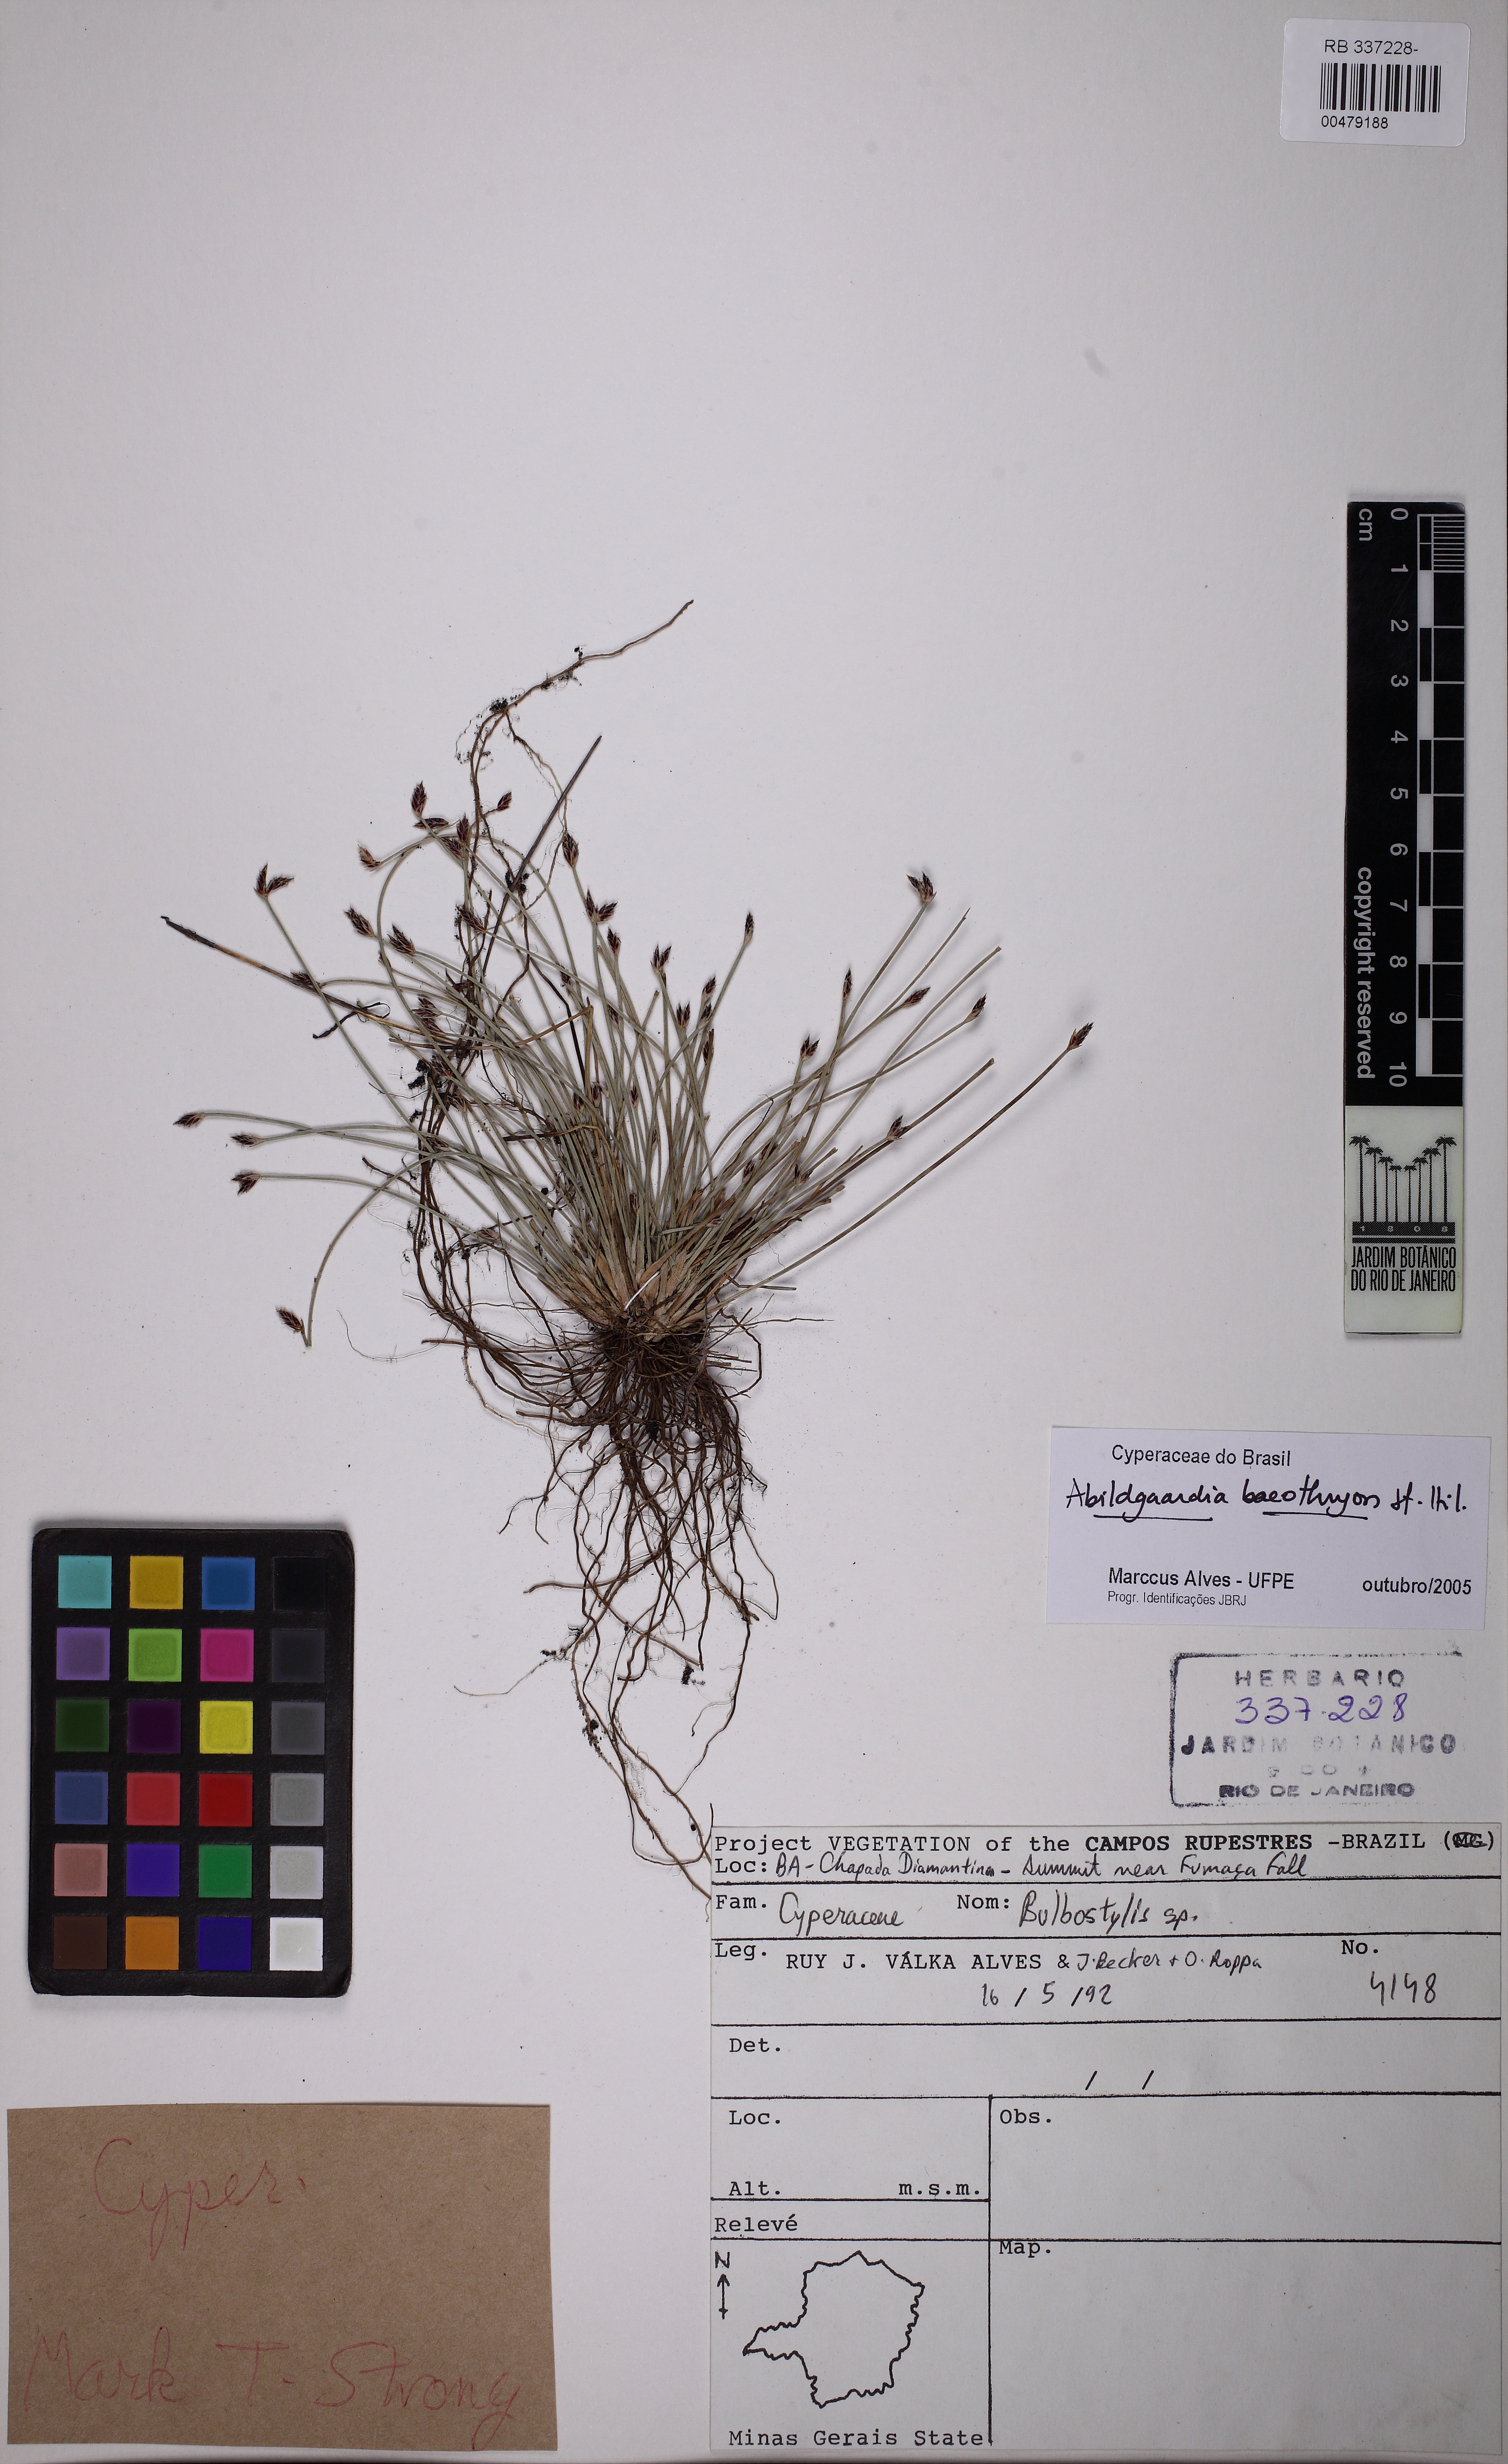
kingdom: Plantae
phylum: Tracheophyta
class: Liliopsida
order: Poales
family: Cyperaceae
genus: Fimbristylis
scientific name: Fimbristylis bahiensis
